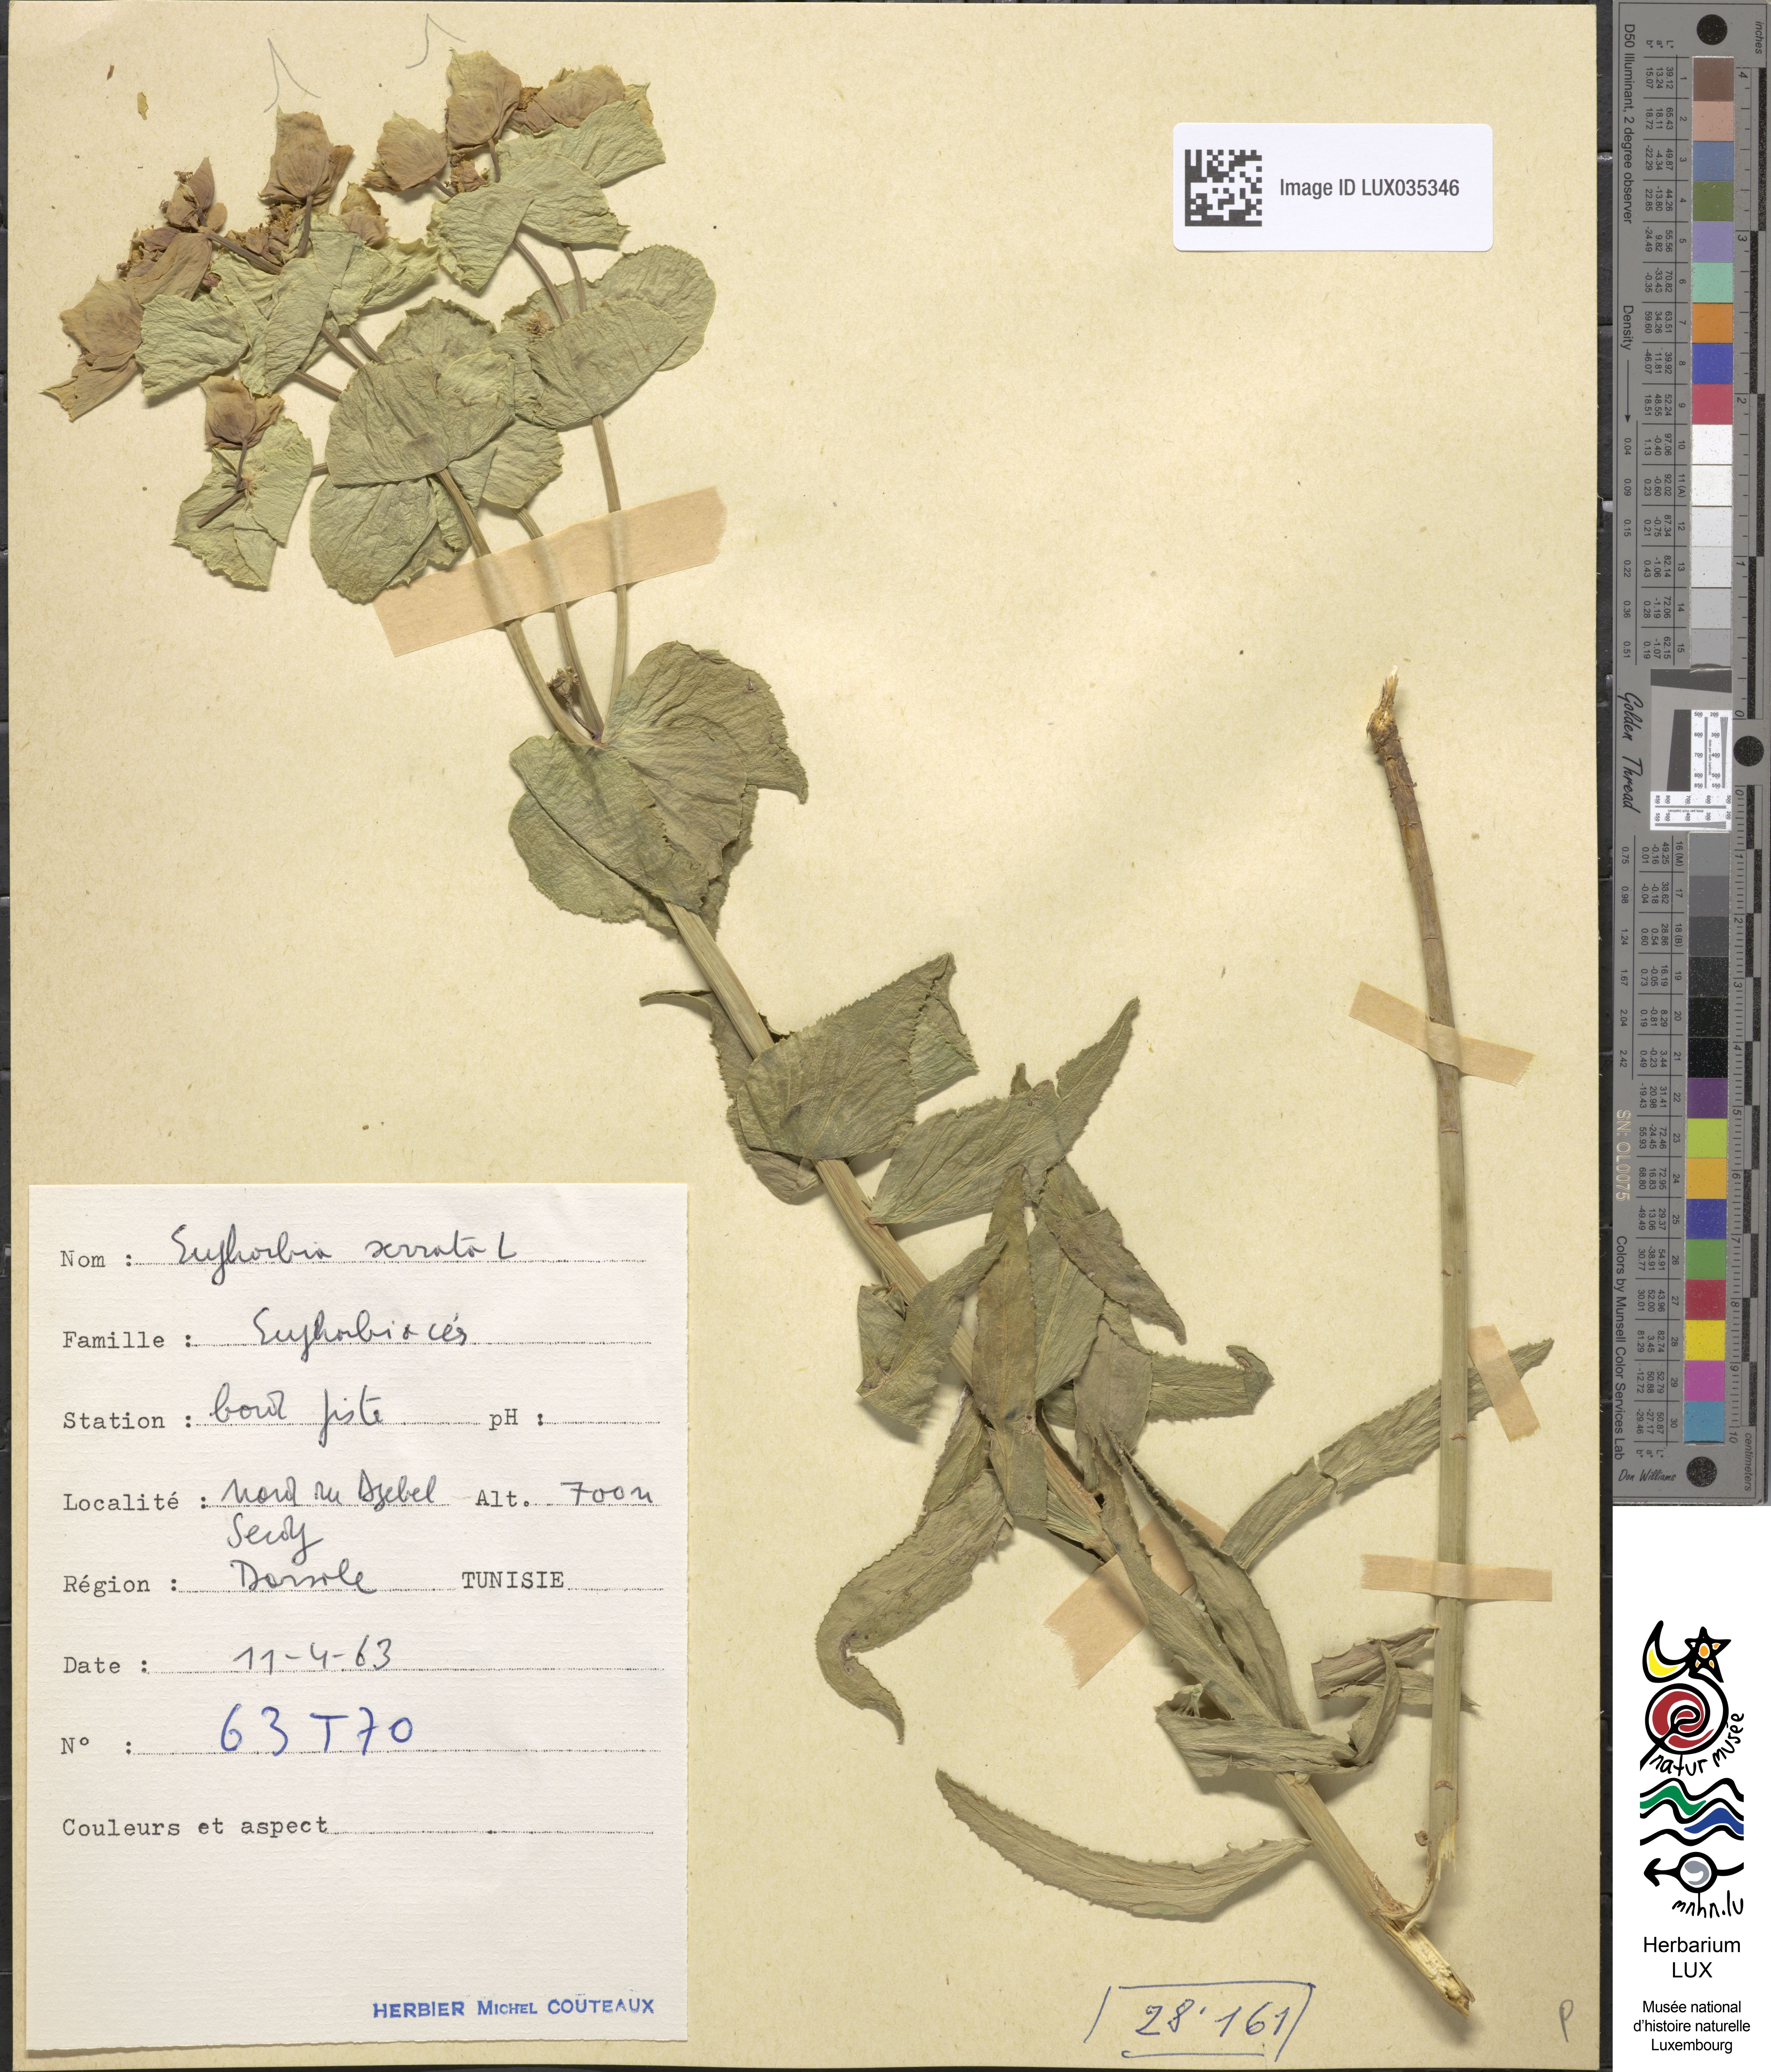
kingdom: Plantae
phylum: Tracheophyta
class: Magnoliopsida
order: Malpighiales
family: Euphorbiaceae
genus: Euphorbia
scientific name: Euphorbia serrata
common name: Serrate spurge
